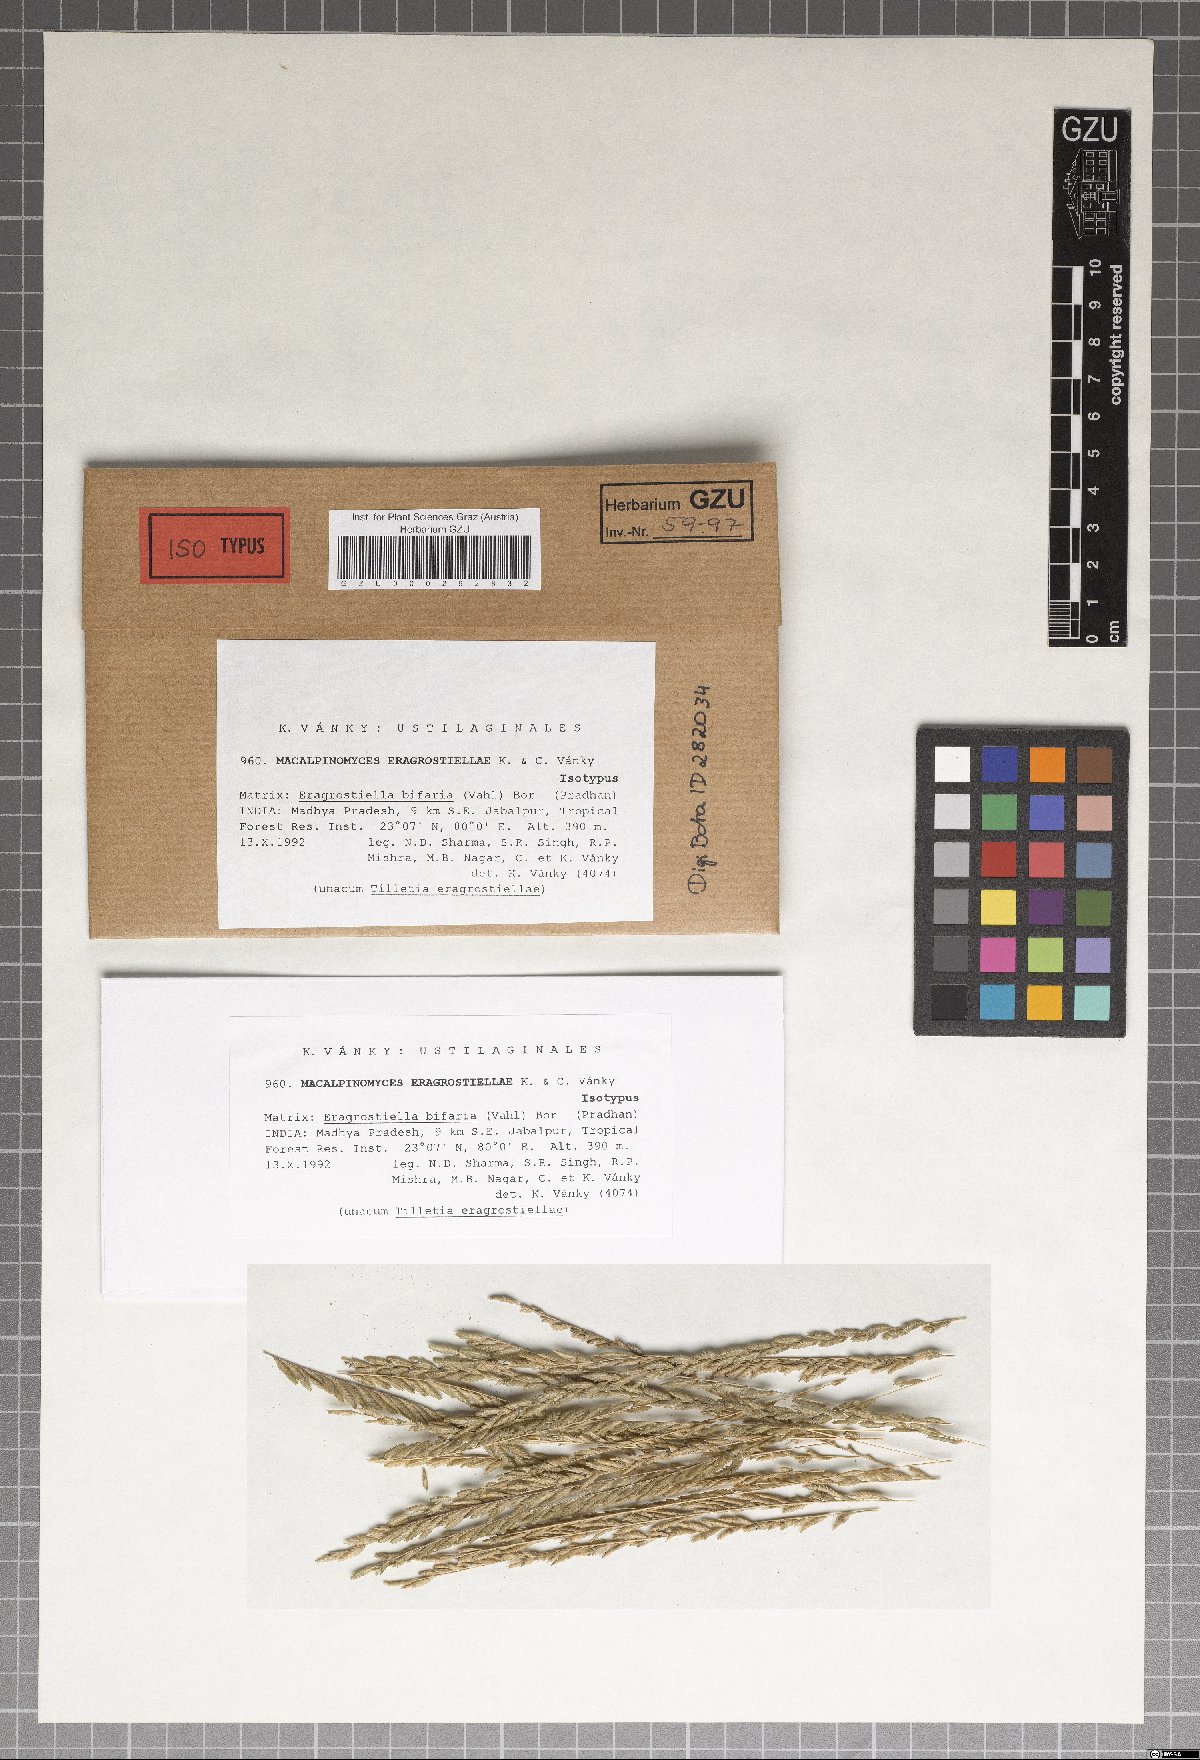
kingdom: Fungi
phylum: Basidiomycota
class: Ustilaginomycetes
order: Ustilaginales
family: Ustilaginaceae
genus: Macalpinomyces
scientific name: Macalpinomyces eragrostiellae
